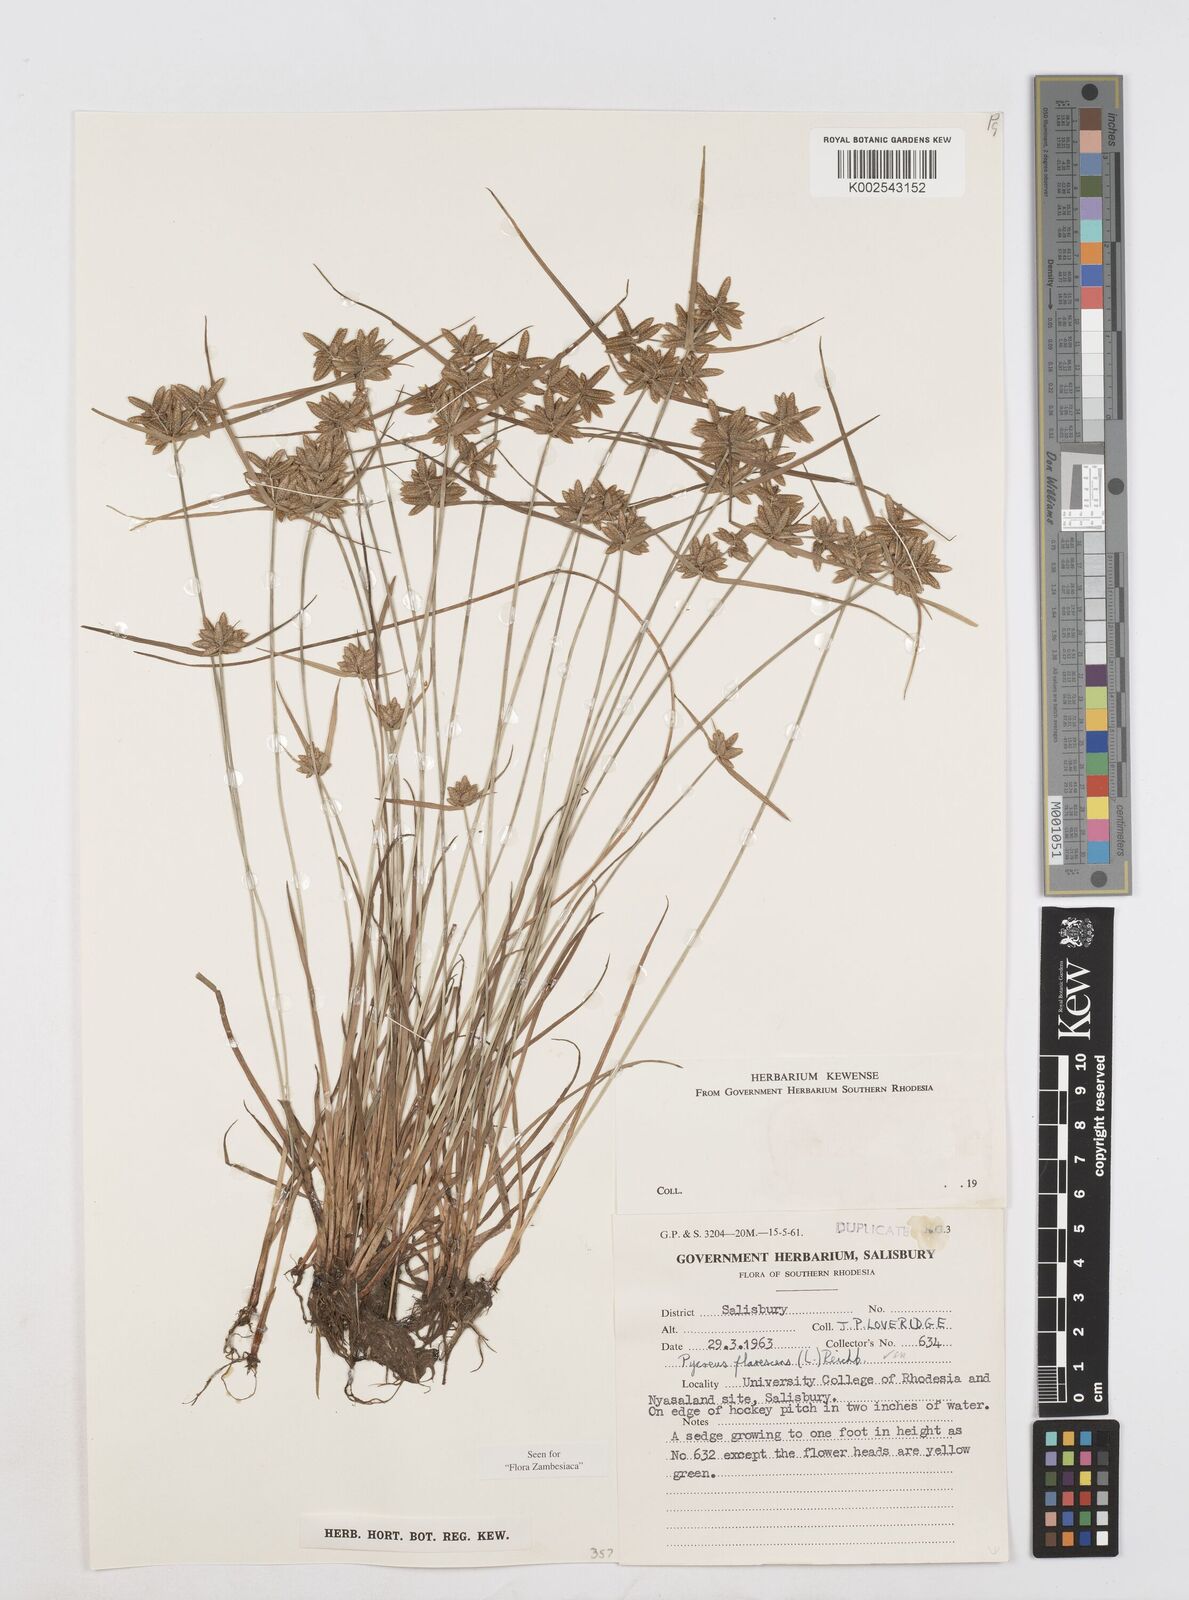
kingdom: Plantae
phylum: Tracheophyta
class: Liliopsida
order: Poales
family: Cyperaceae
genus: Cyperus
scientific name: Cyperus flavescens
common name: Yellow galingale
